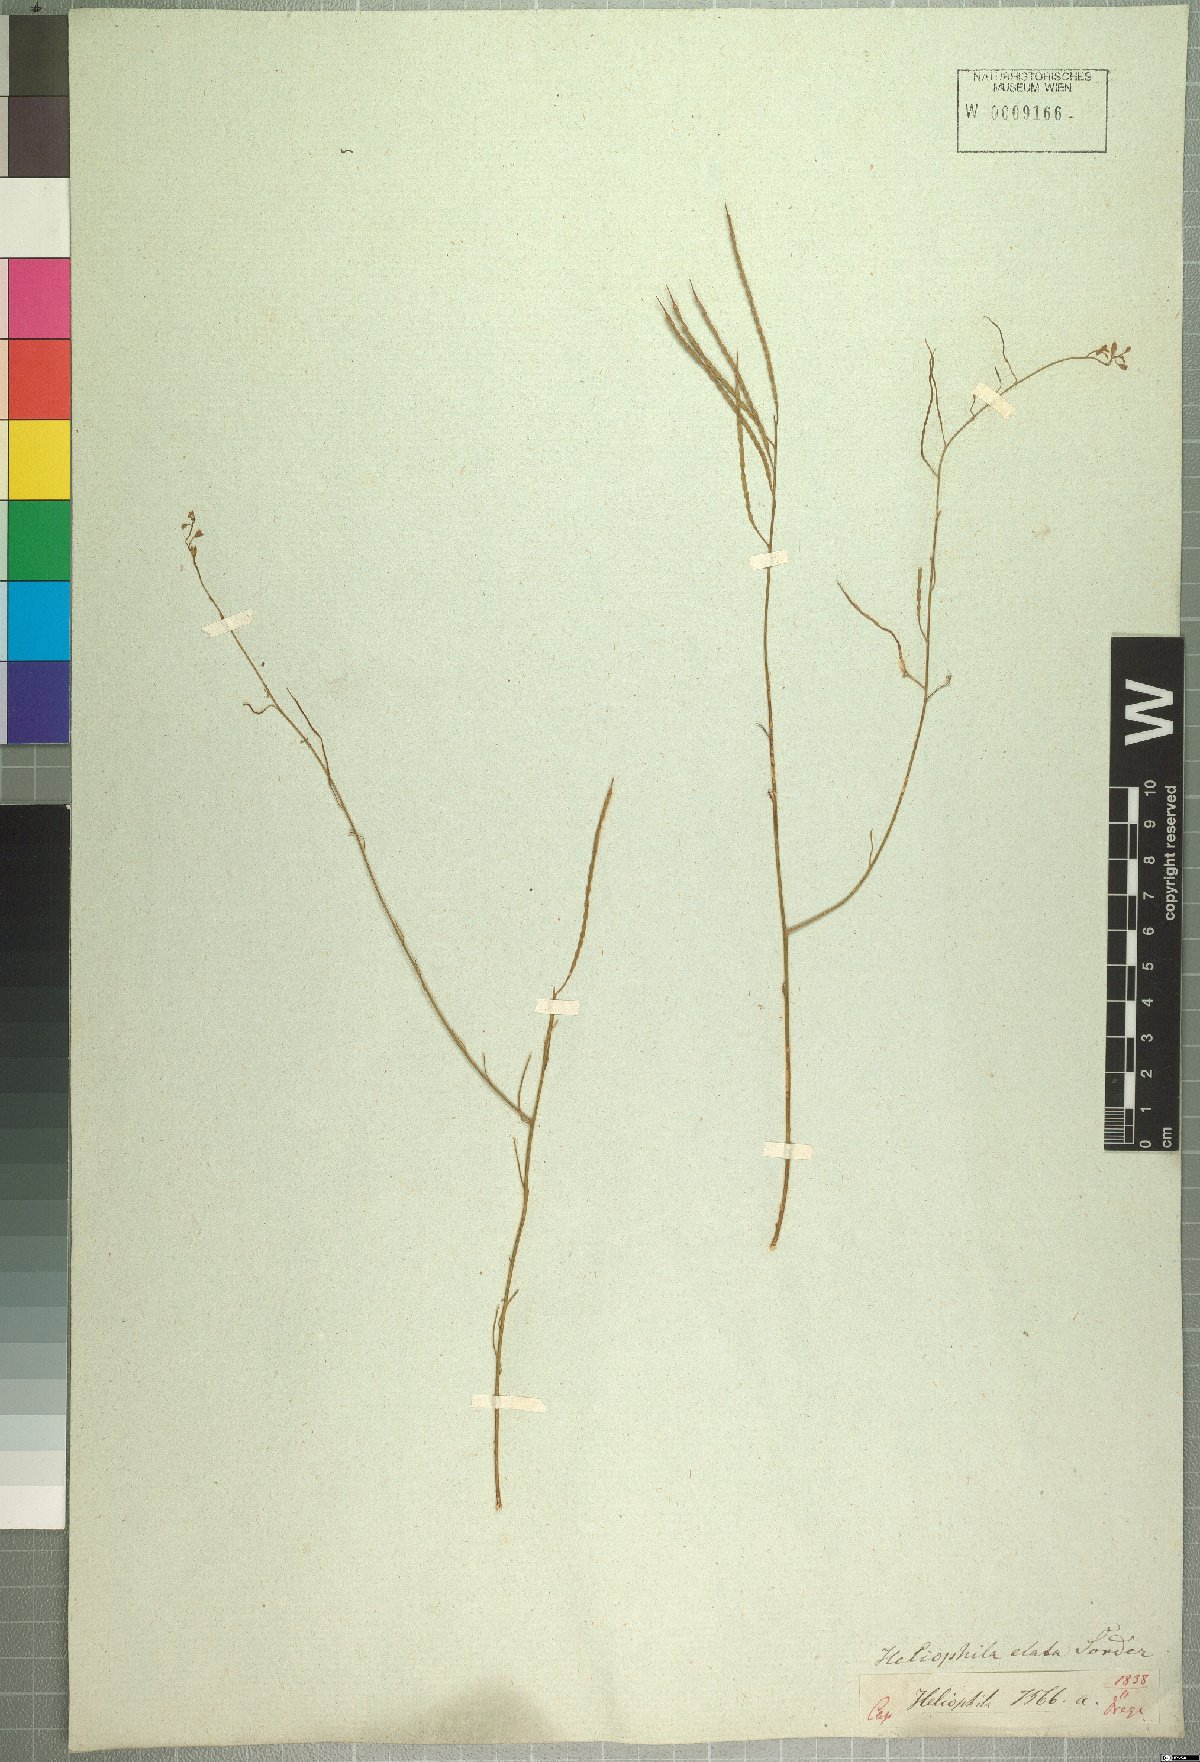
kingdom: Plantae
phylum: Tracheophyta
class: Magnoliopsida
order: Brassicales
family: Brassicaceae
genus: Heliophila
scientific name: Heliophila elata
